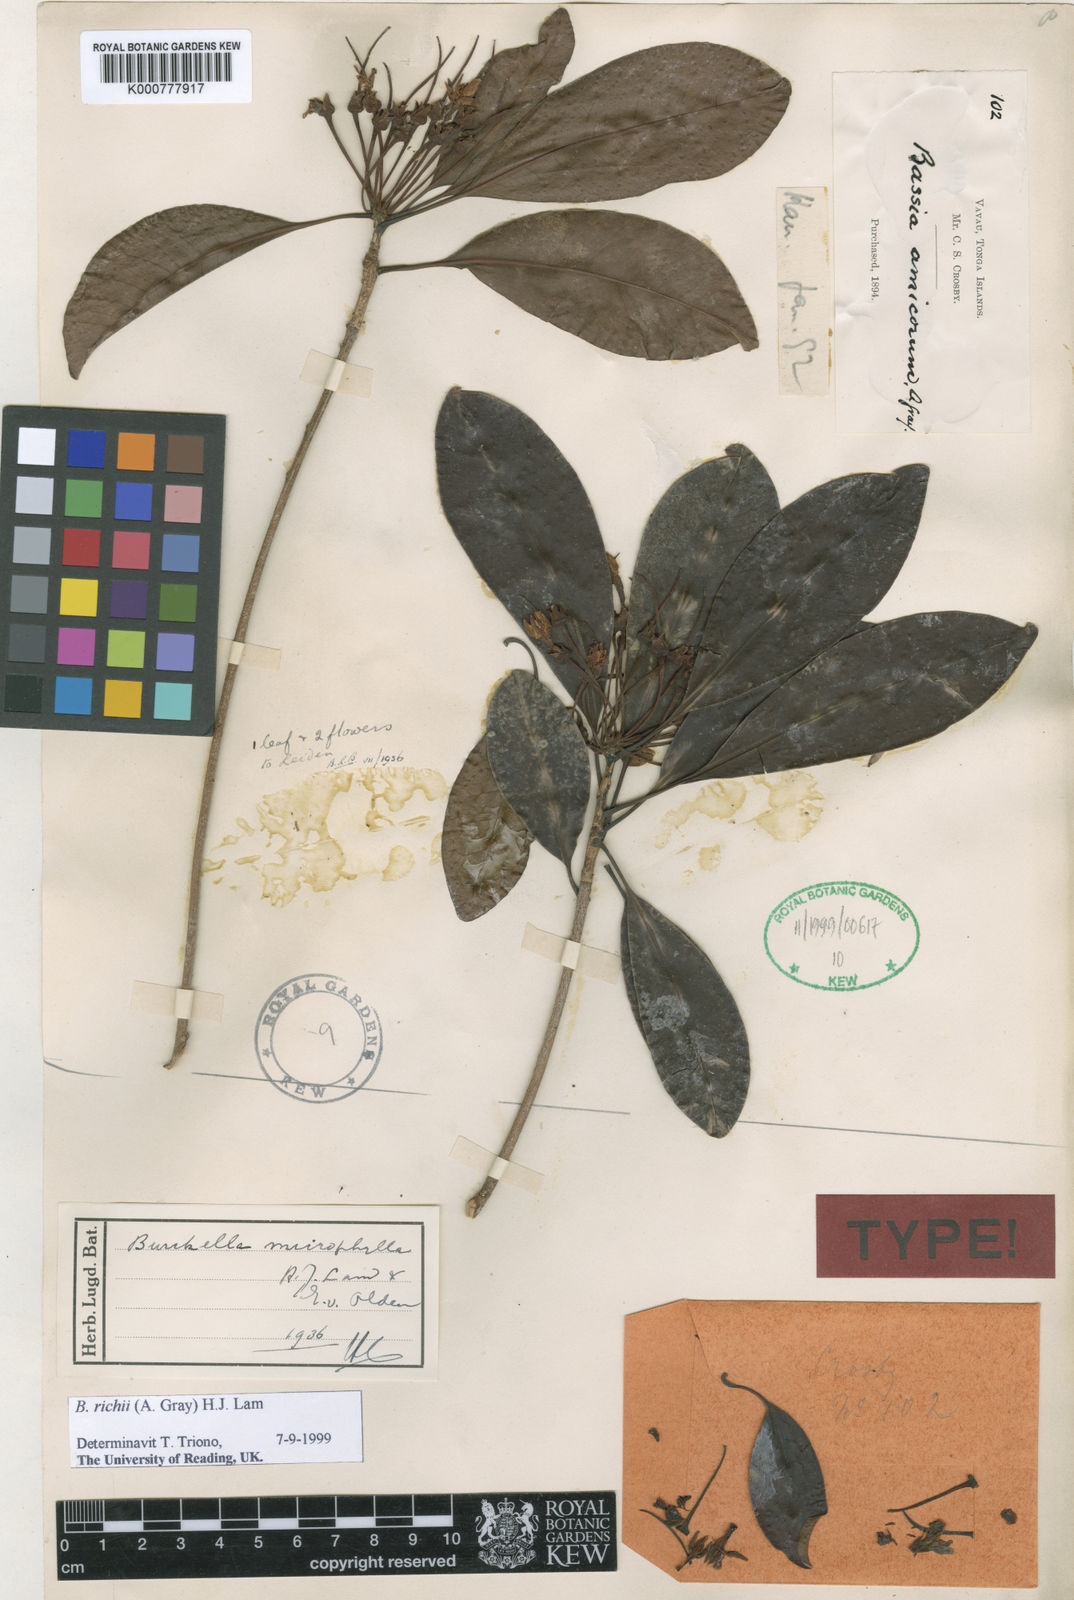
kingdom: Plantae
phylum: Tracheophyta
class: Magnoliopsida
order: Ericales
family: Sapotaceae
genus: Burckella
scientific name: Burckella richii
